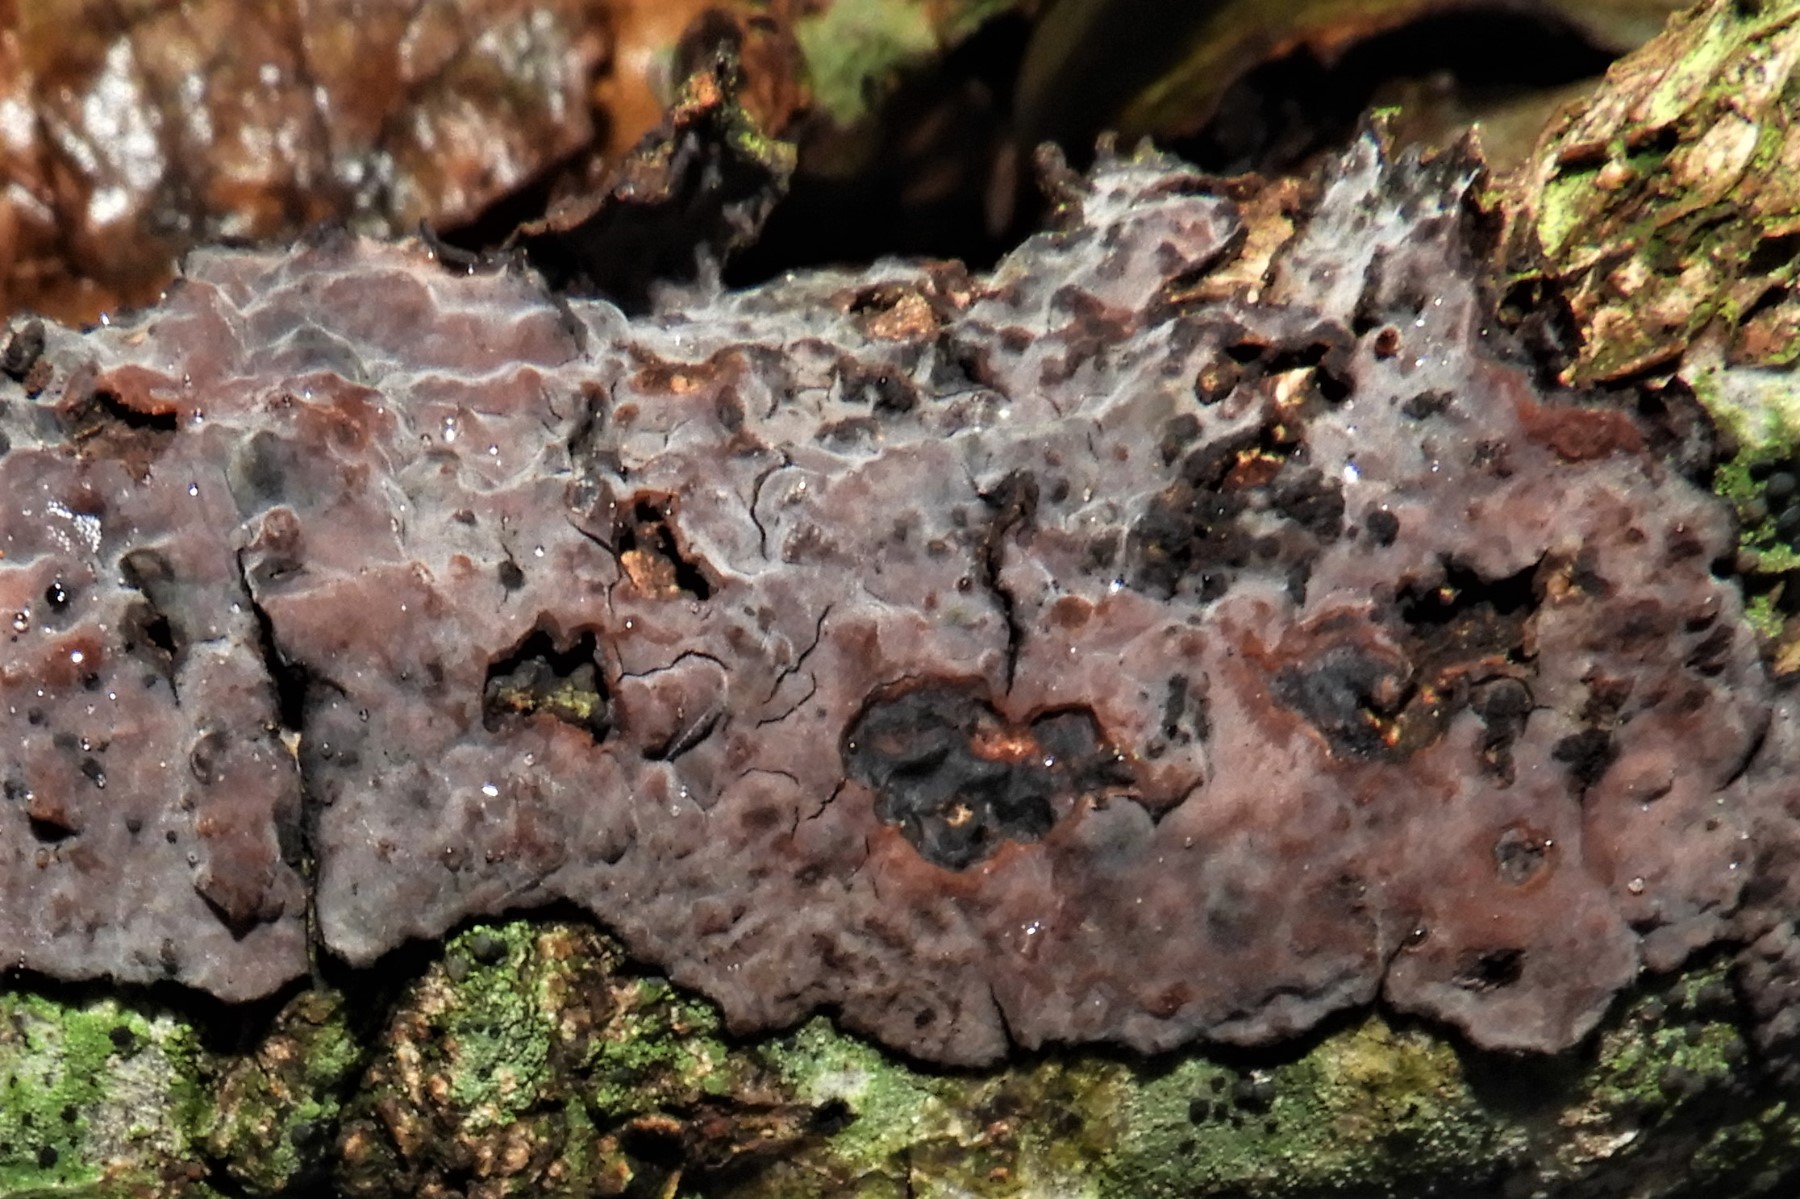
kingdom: Fungi
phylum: Basidiomycota
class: Agaricomycetes
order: Russulales
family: Peniophoraceae
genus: Peniophora
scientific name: Peniophora quercina
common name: ege-voksskind
